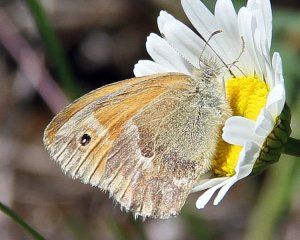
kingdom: Animalia
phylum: Arthropoda
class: Insecta
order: Lepidoptera
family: Nymphalidae
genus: Coenonympha
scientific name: Coenonympha tullia
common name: Large Heath
